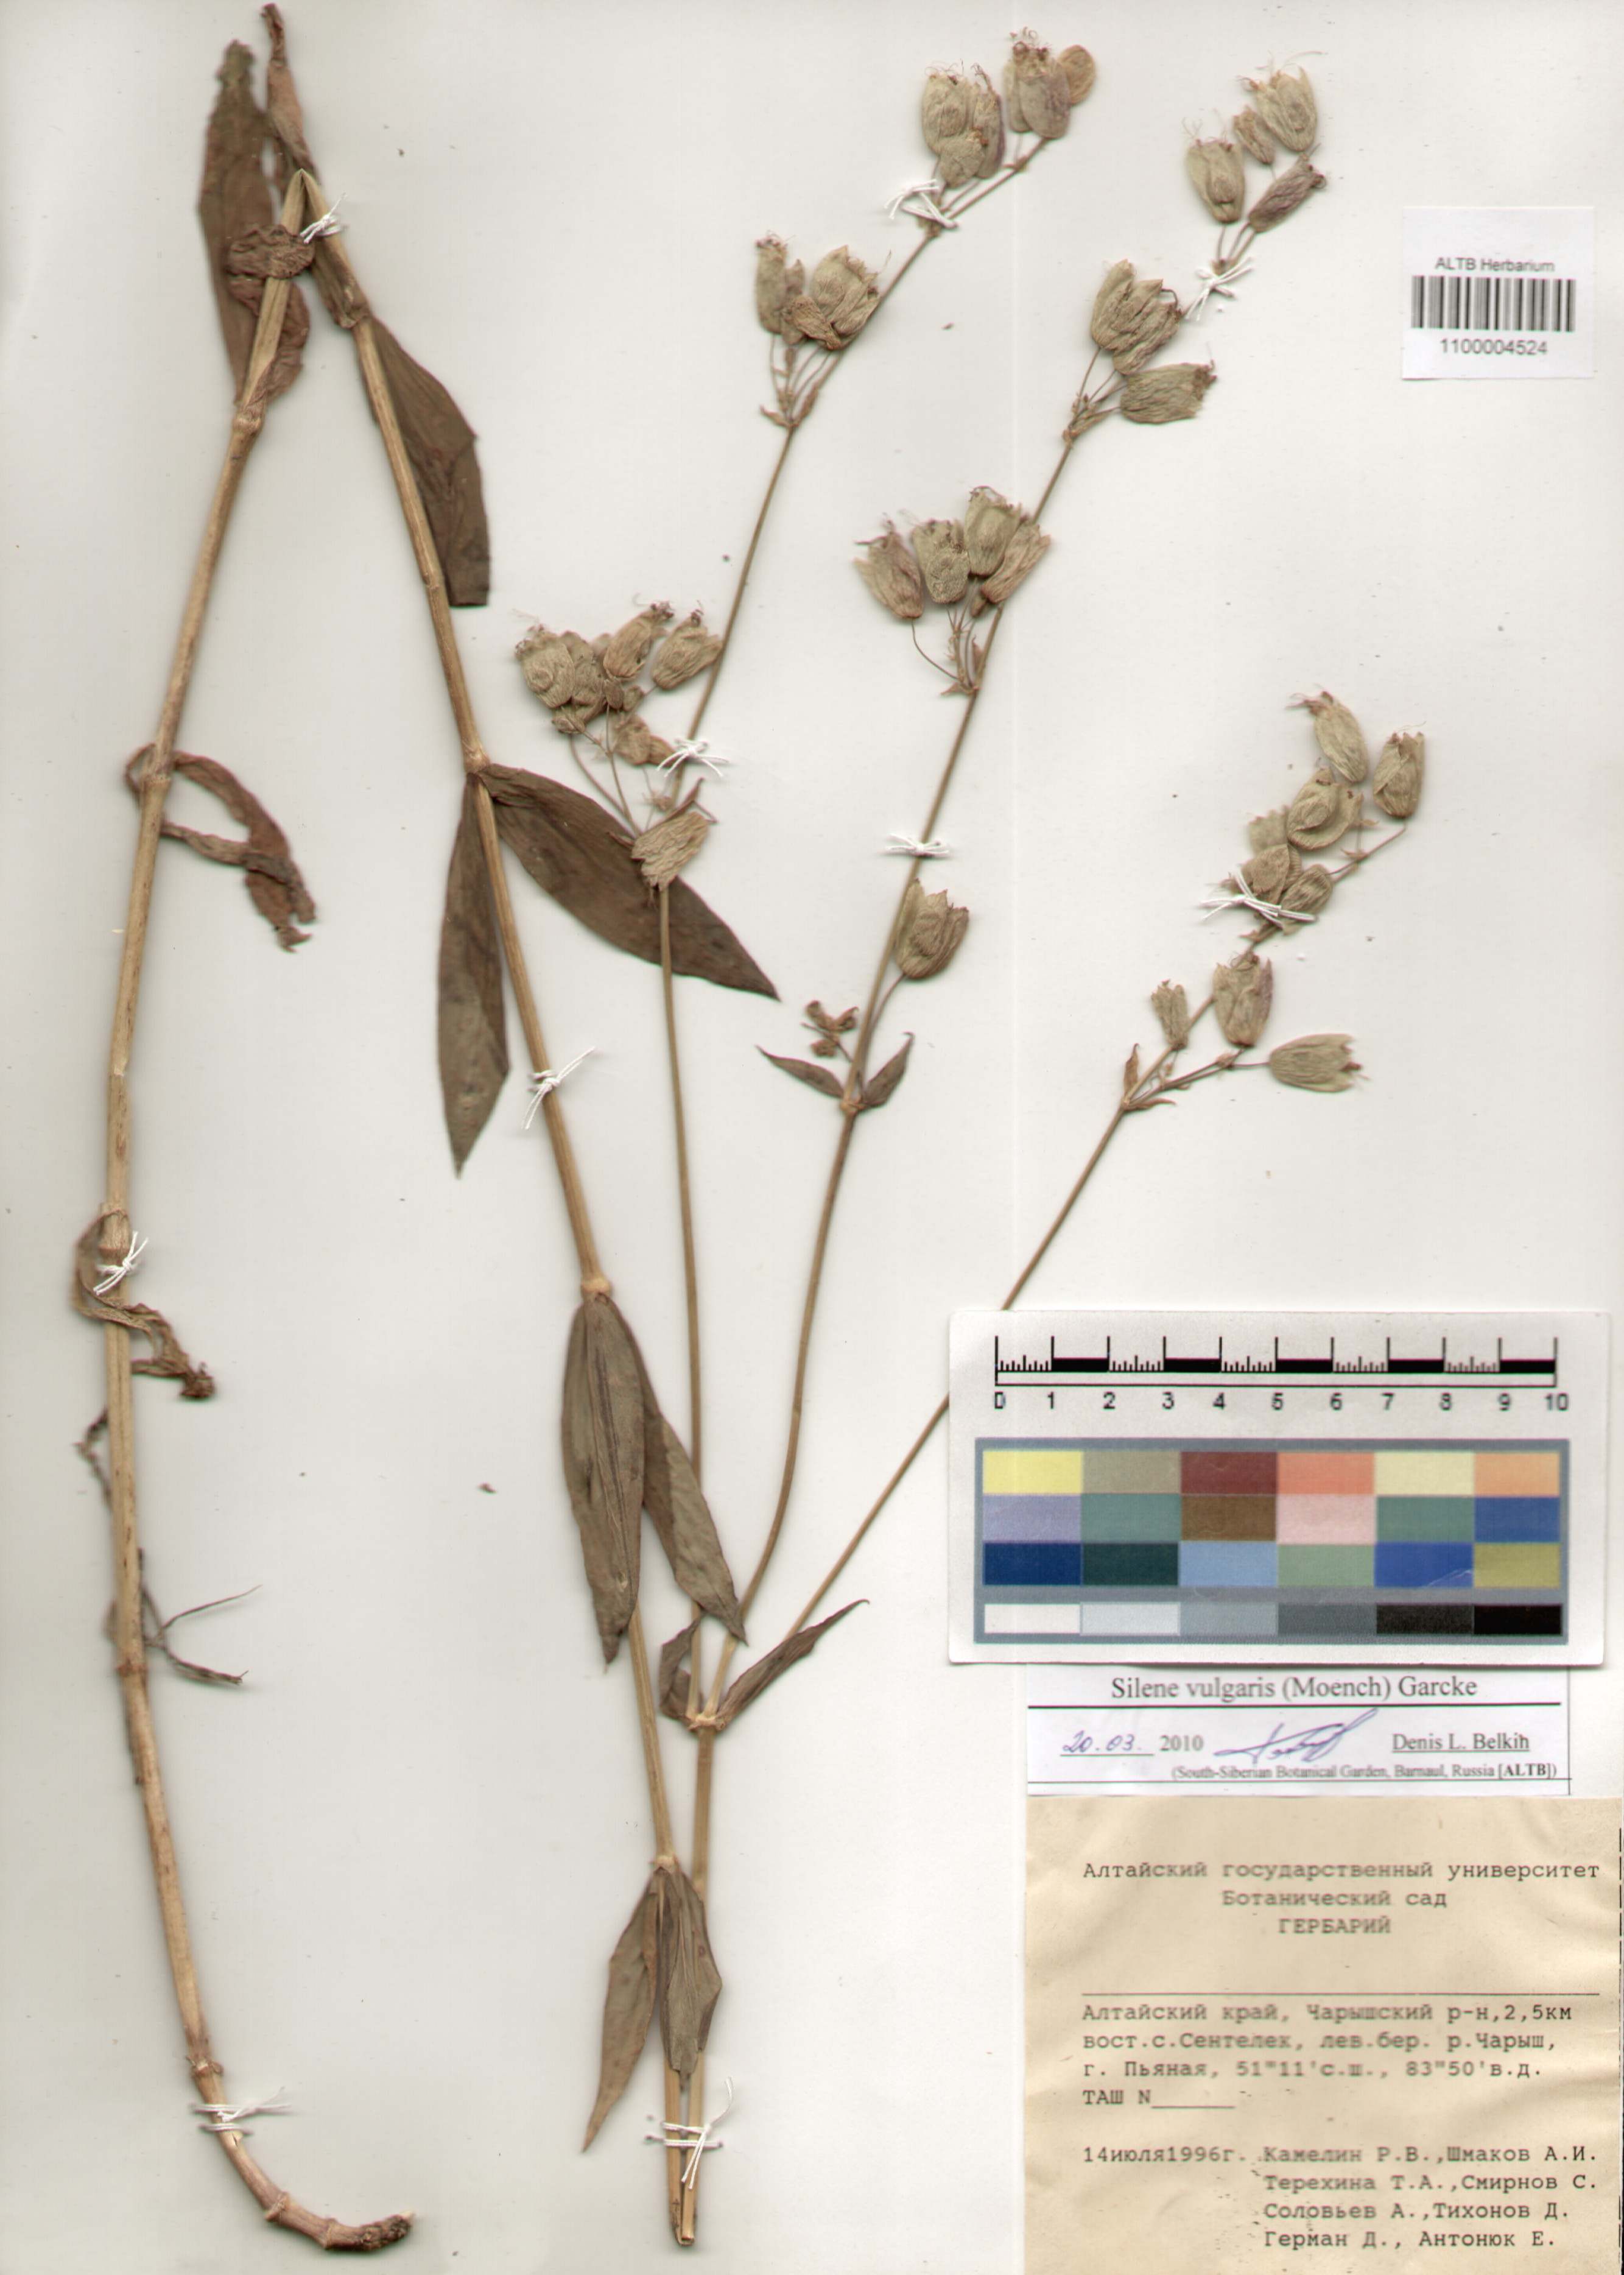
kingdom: Plantae
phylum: Tracheophyta
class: Magnoliopsida
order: Caryophyllales
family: Caryophyllaceae
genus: Silene
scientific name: Silene vulgaris
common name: Bladder campion
